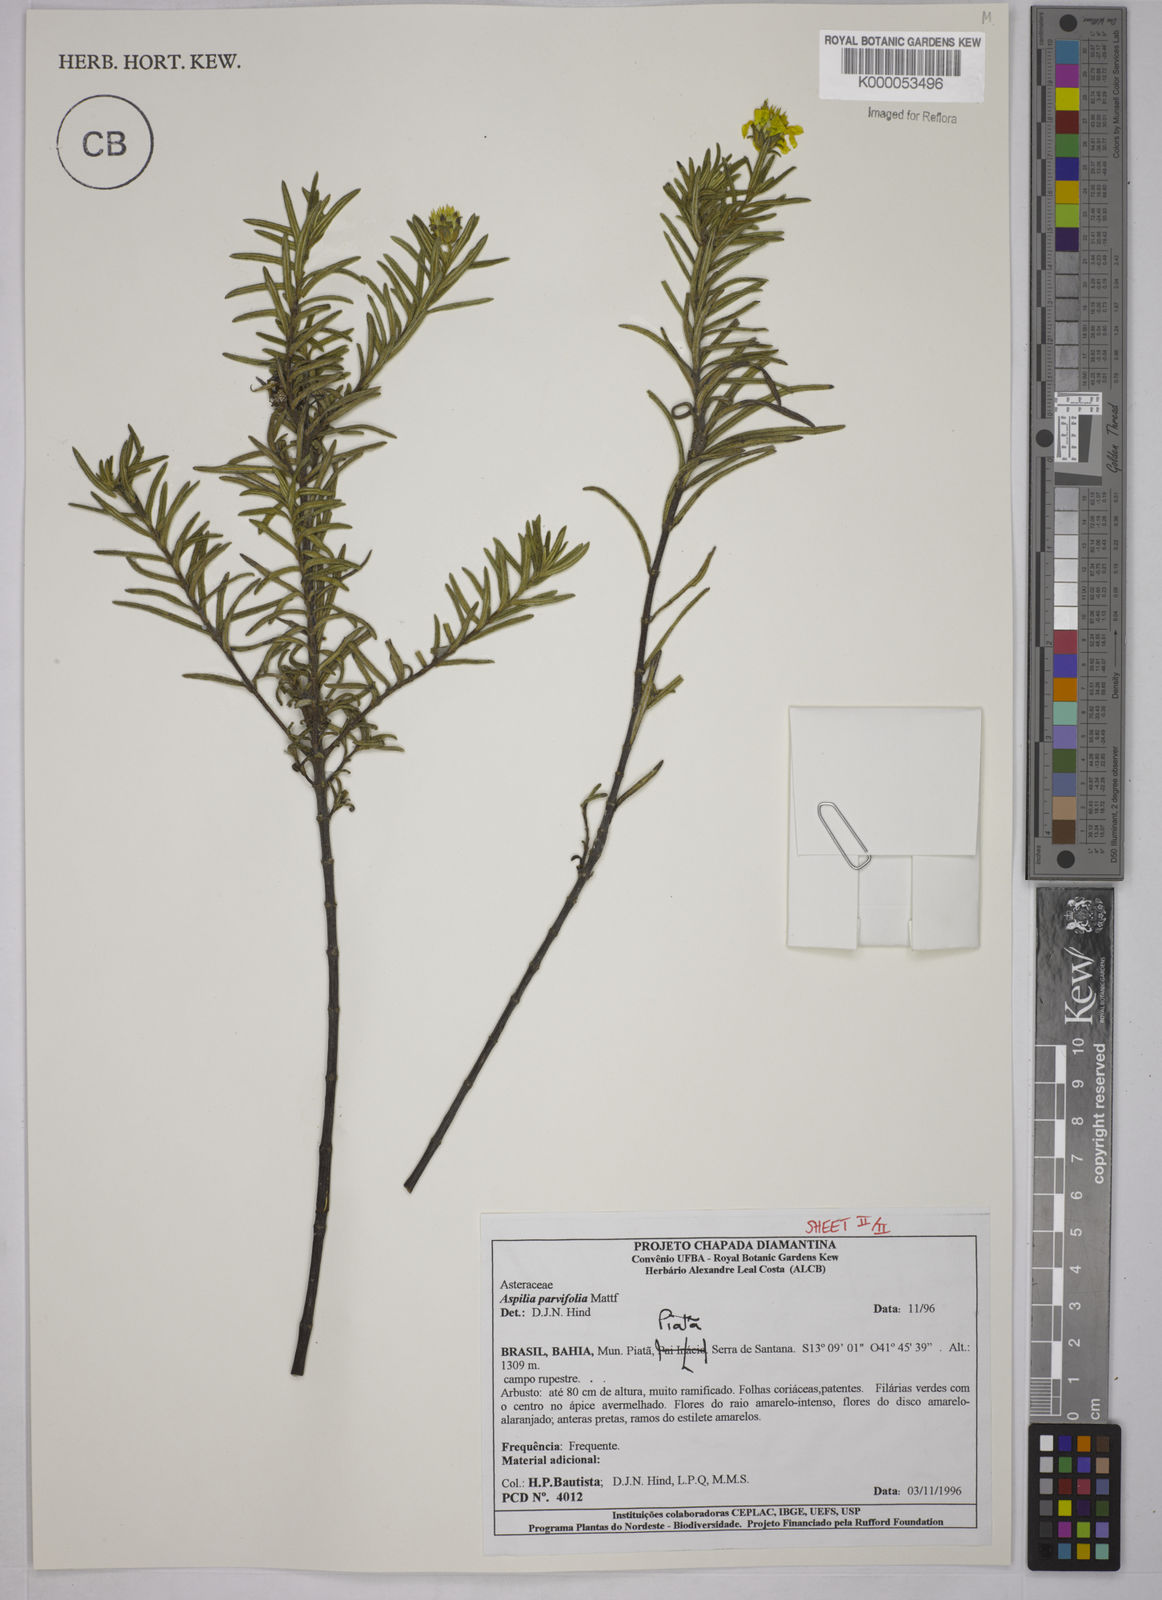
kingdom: Plantae
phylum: Tracheophyta
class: Magnoliopsida
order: Asterales
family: Asteraceae
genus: Aspilia
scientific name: Aspilia foliosa
